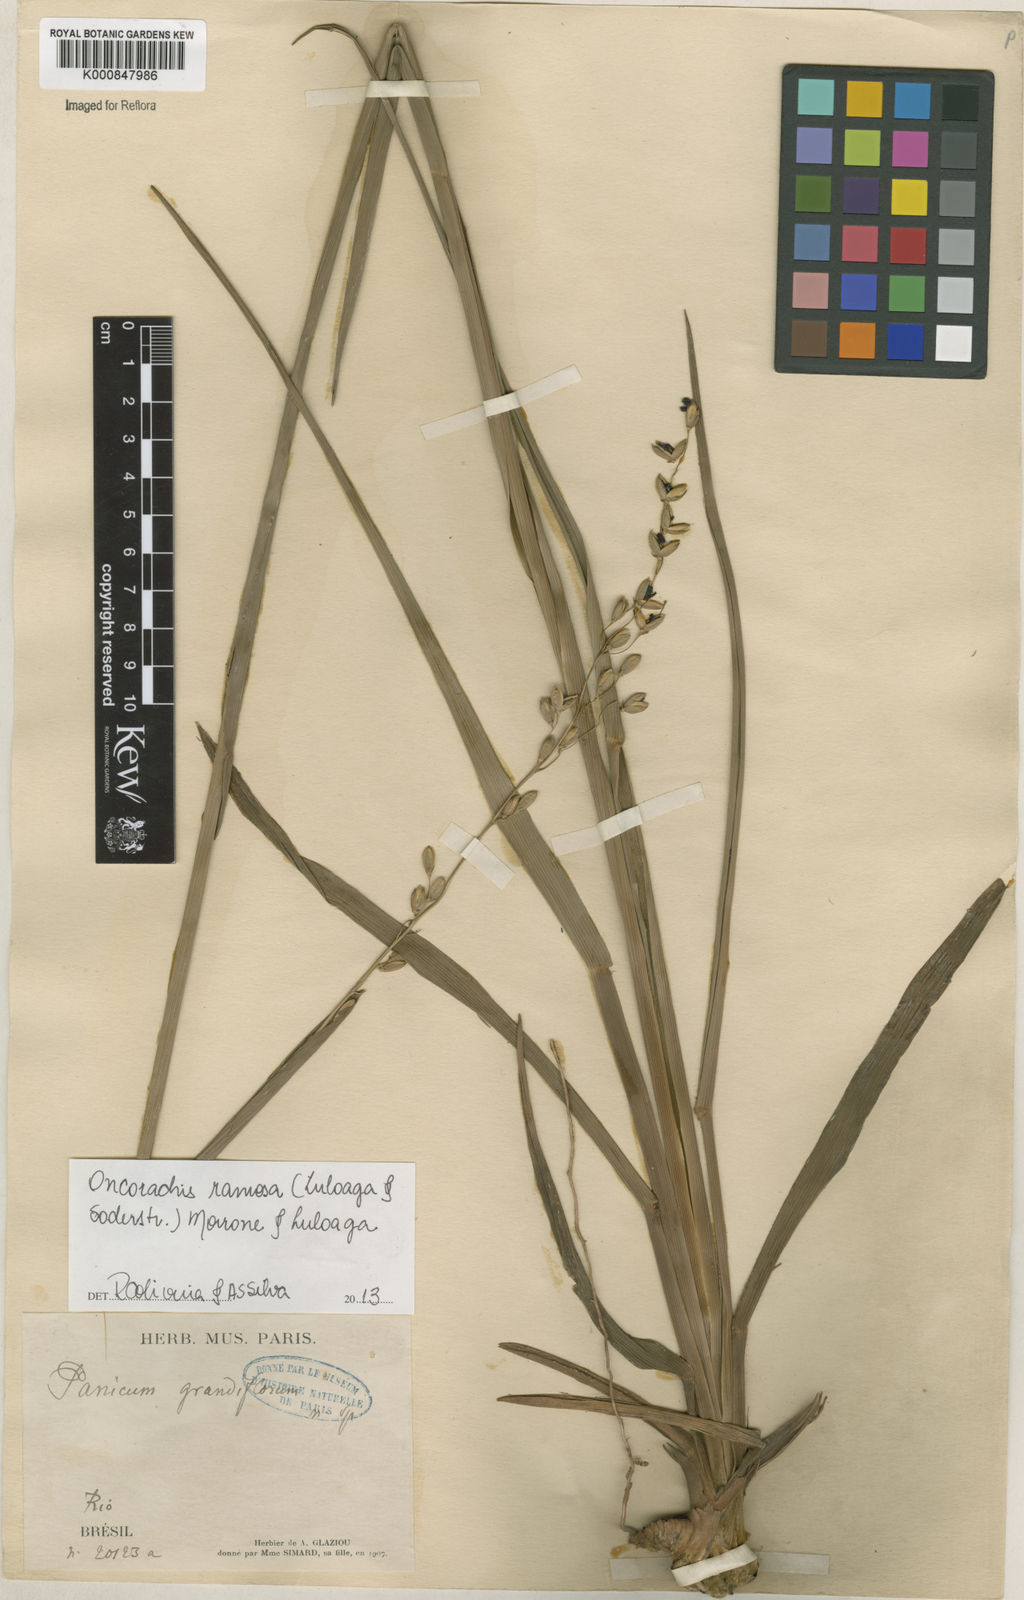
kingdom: Plantae
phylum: Tracheophyta
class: Liliopsida
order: Poales
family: Poaceae
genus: Oncorachis
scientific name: Oncorachis ramosa
